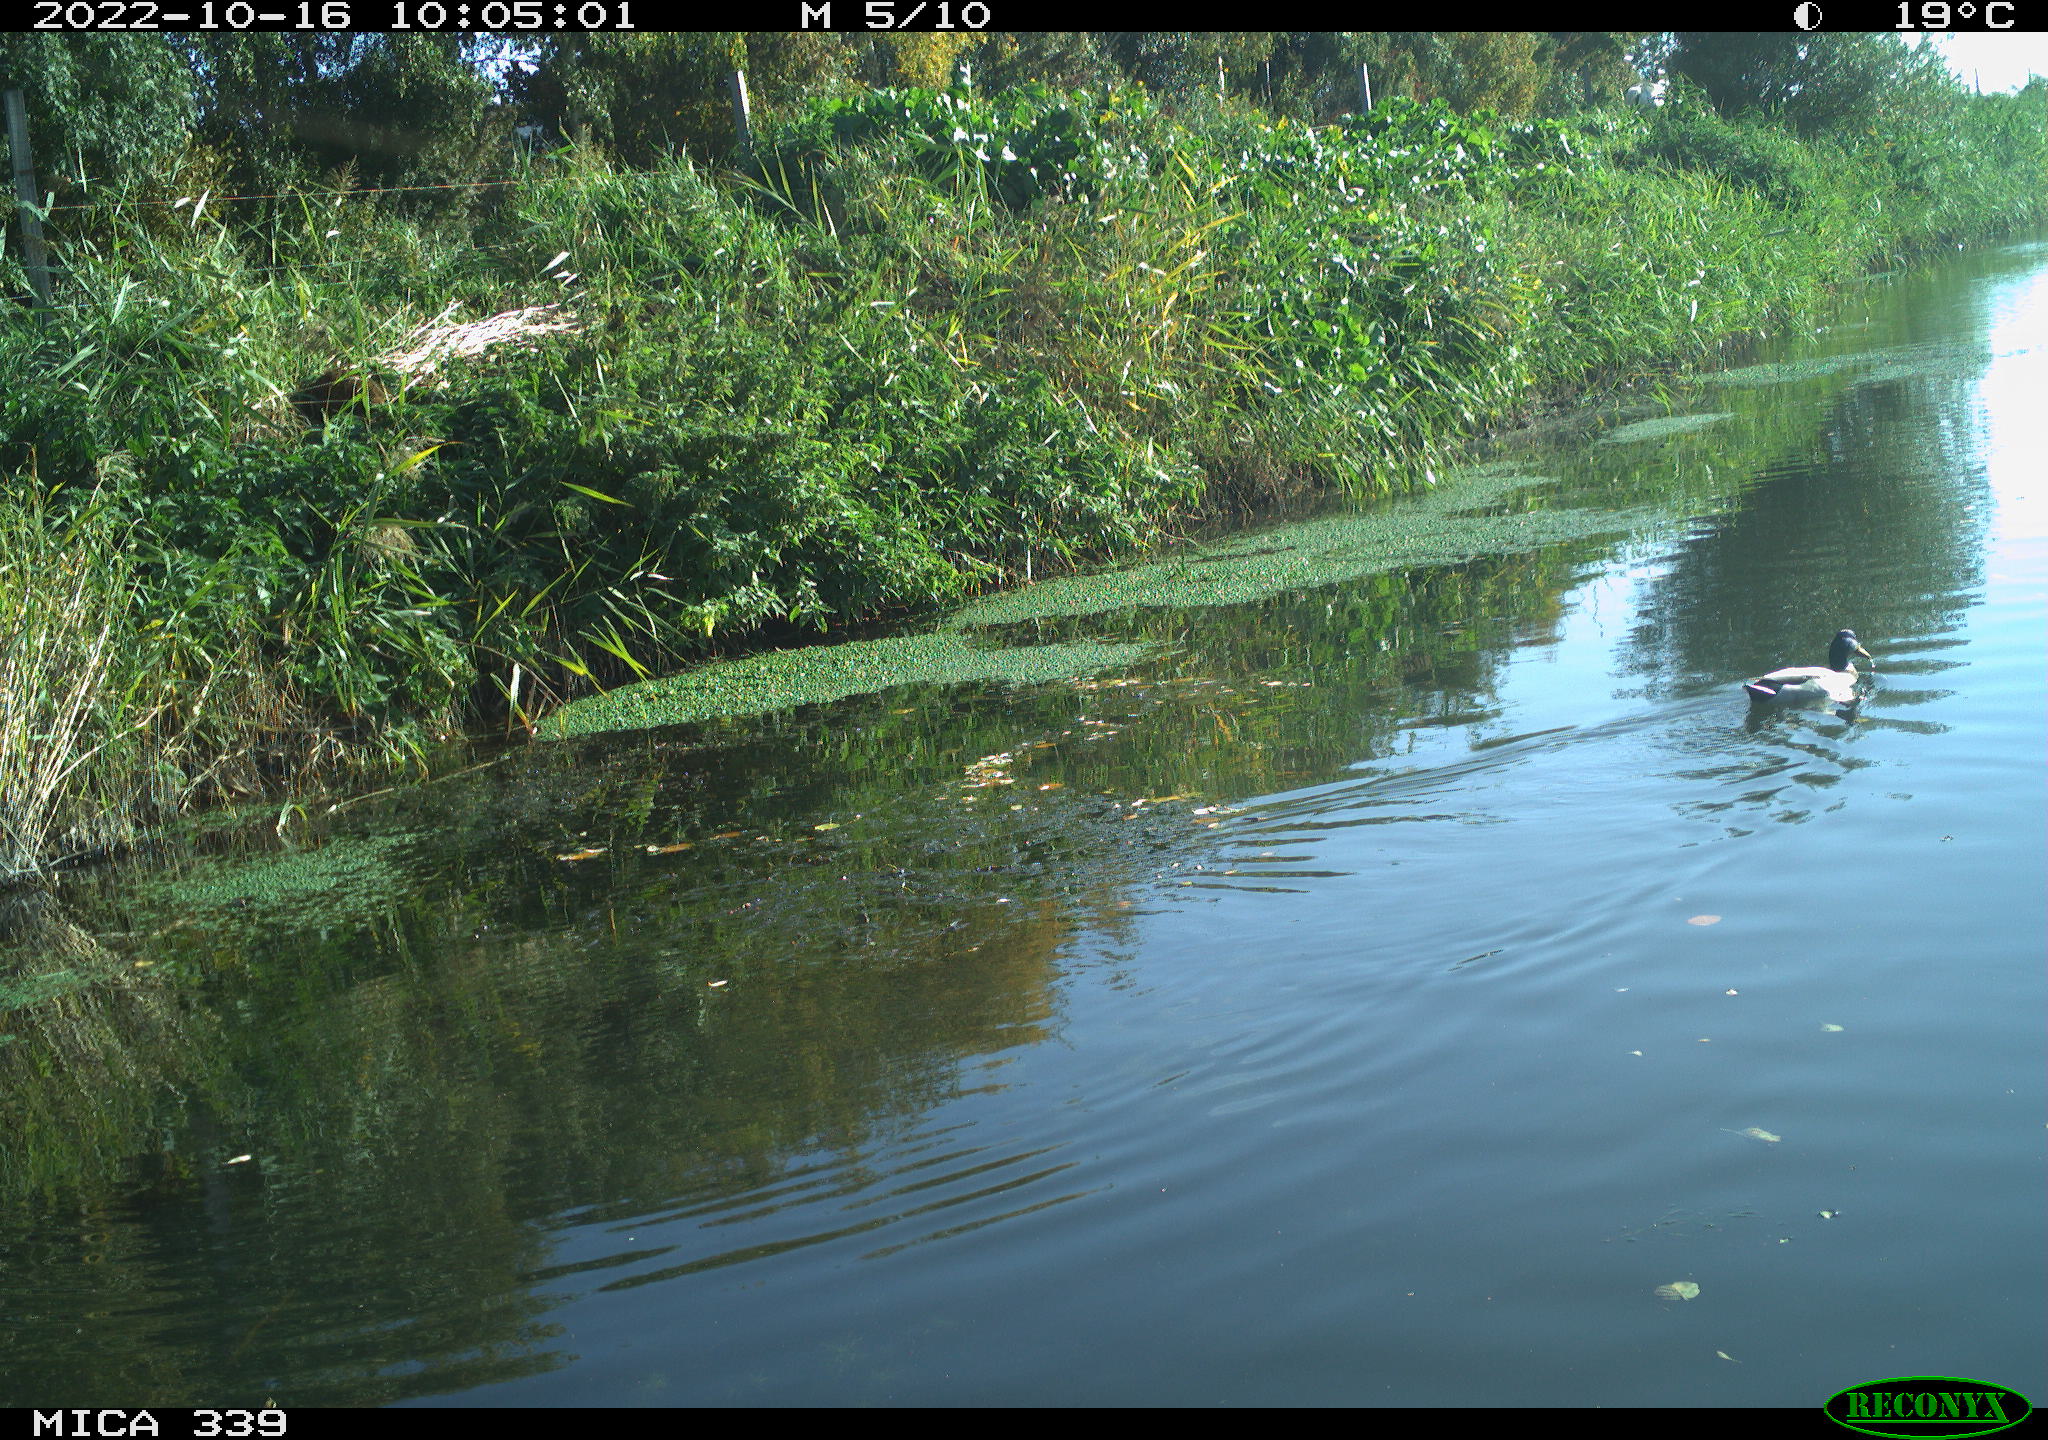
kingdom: Animalia
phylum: Chordata
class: Aves
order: Anseriformes
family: Anatidae
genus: Anas
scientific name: Anas platyrhynchos
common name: Mallard
